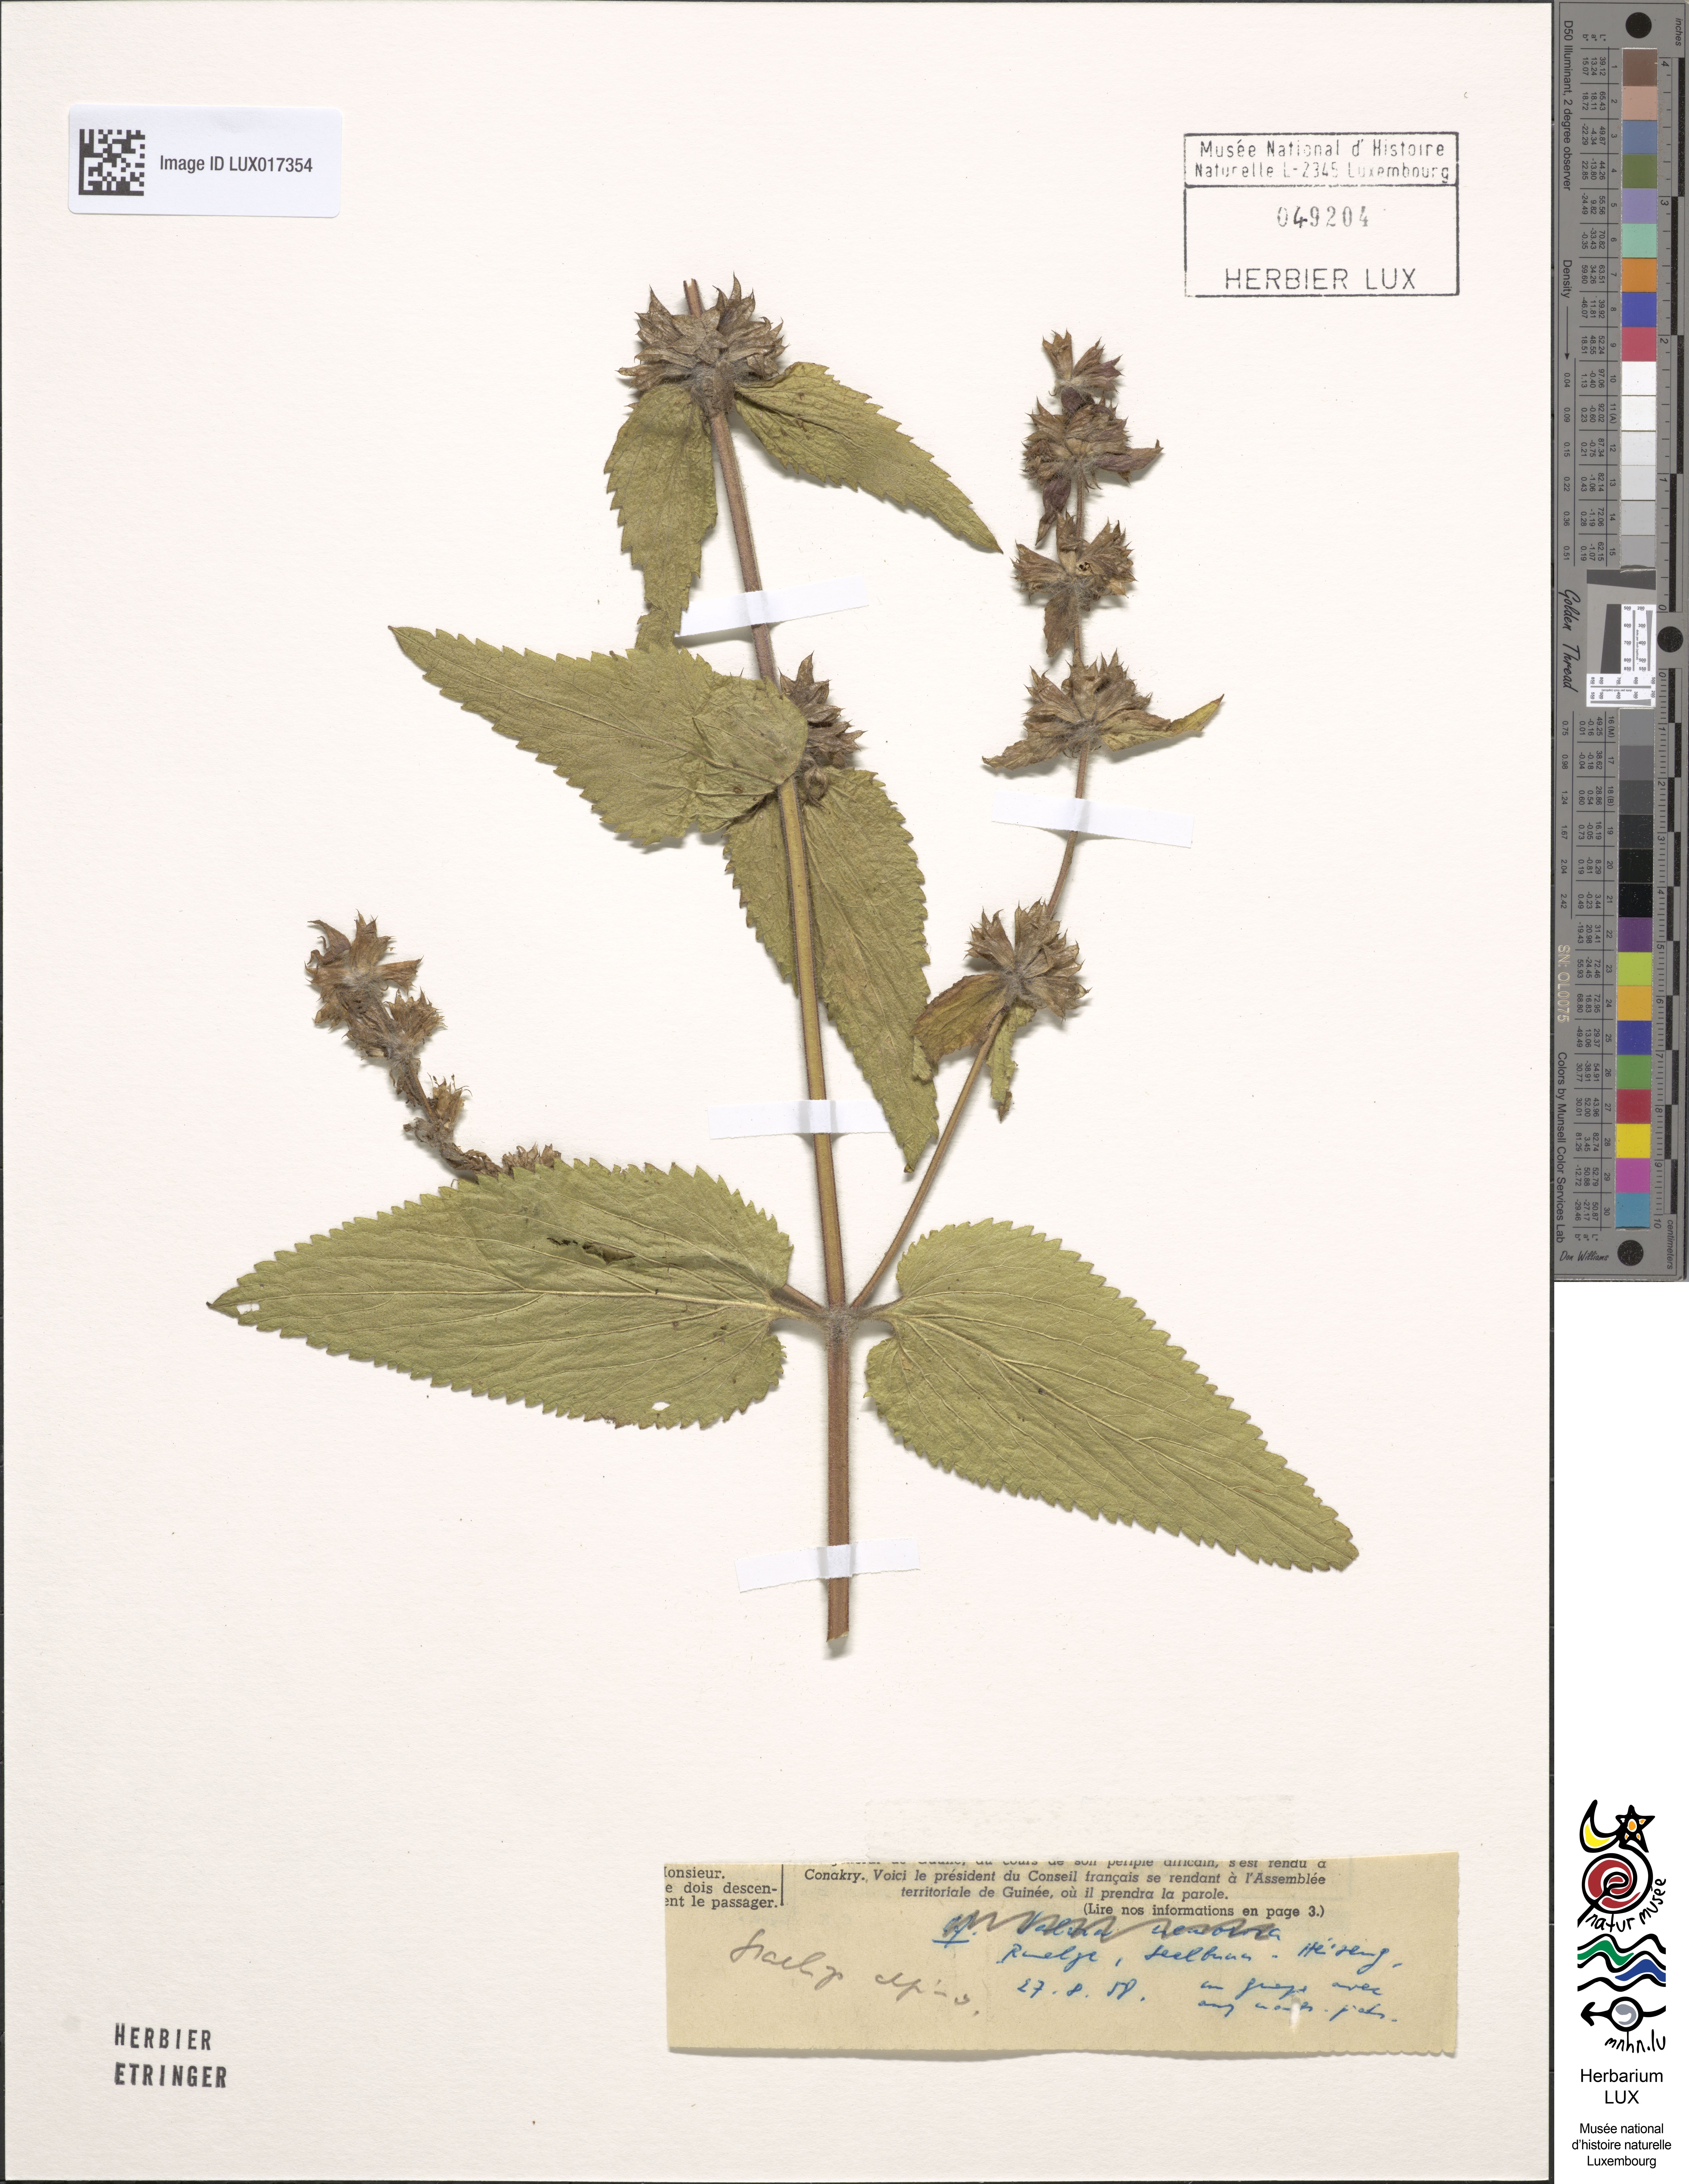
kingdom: Plantae
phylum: Tracheophyta
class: Magnoliopsida
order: Lamiales
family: Lamiaceae
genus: Stachys
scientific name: Stachys alpina
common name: Limestone woundwort
